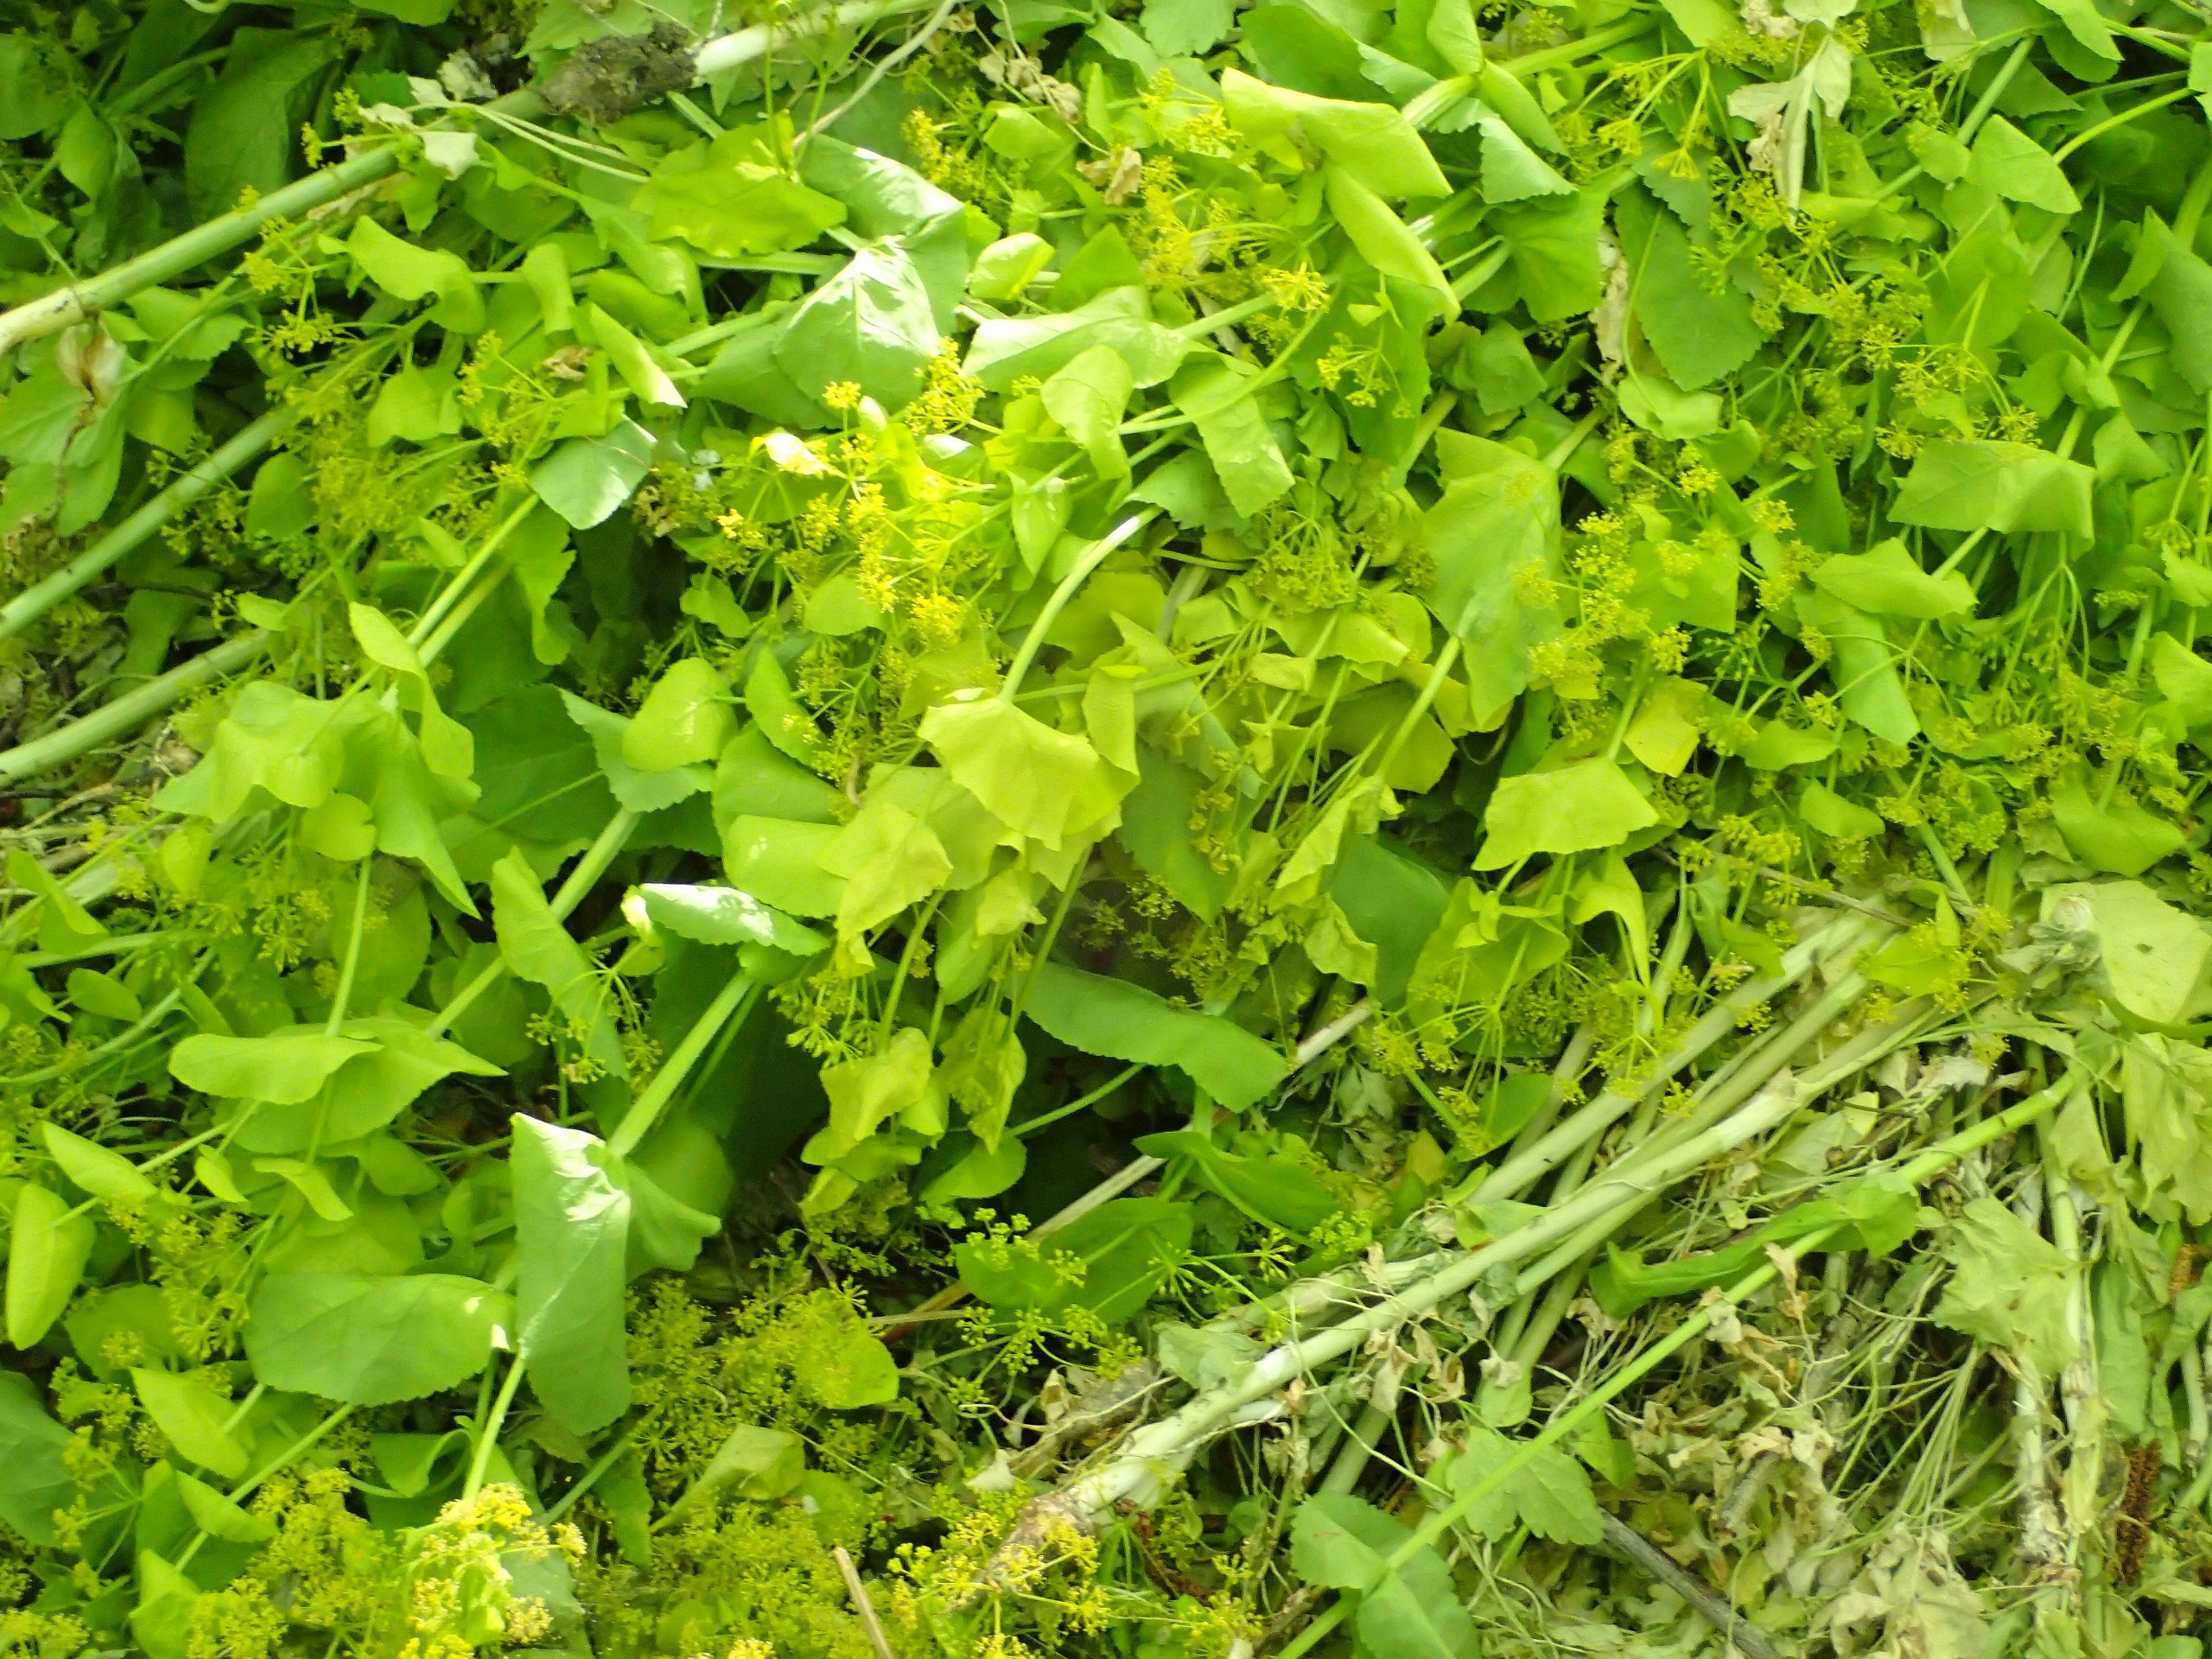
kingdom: Plantae
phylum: Tracheophyta
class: Magnoliopsida
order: Apiales
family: Apiaceae
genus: Smyrnium
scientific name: Smyrnium perfoliatum
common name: Lundgylden
